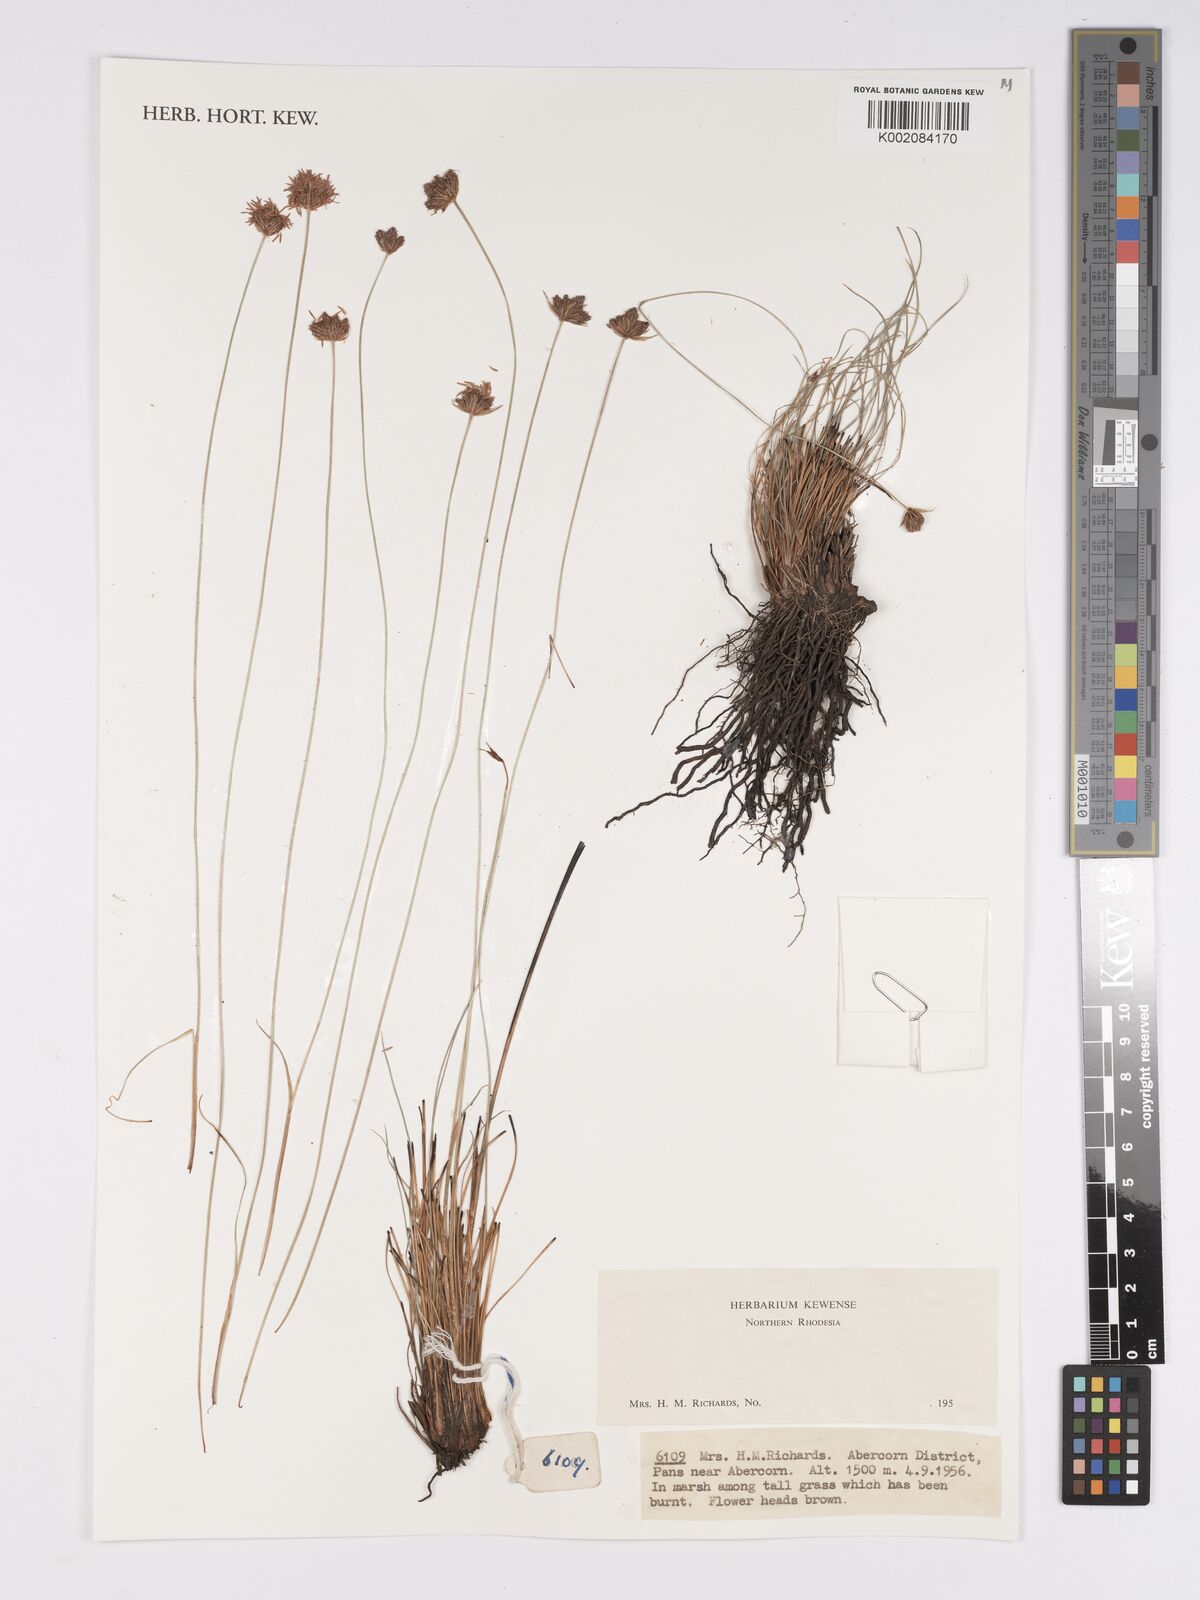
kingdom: Plantae
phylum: Tracheophyta
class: Liliopsida
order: Poales
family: Cyperaceae
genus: Bulbostylis
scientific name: Bulbostylis
